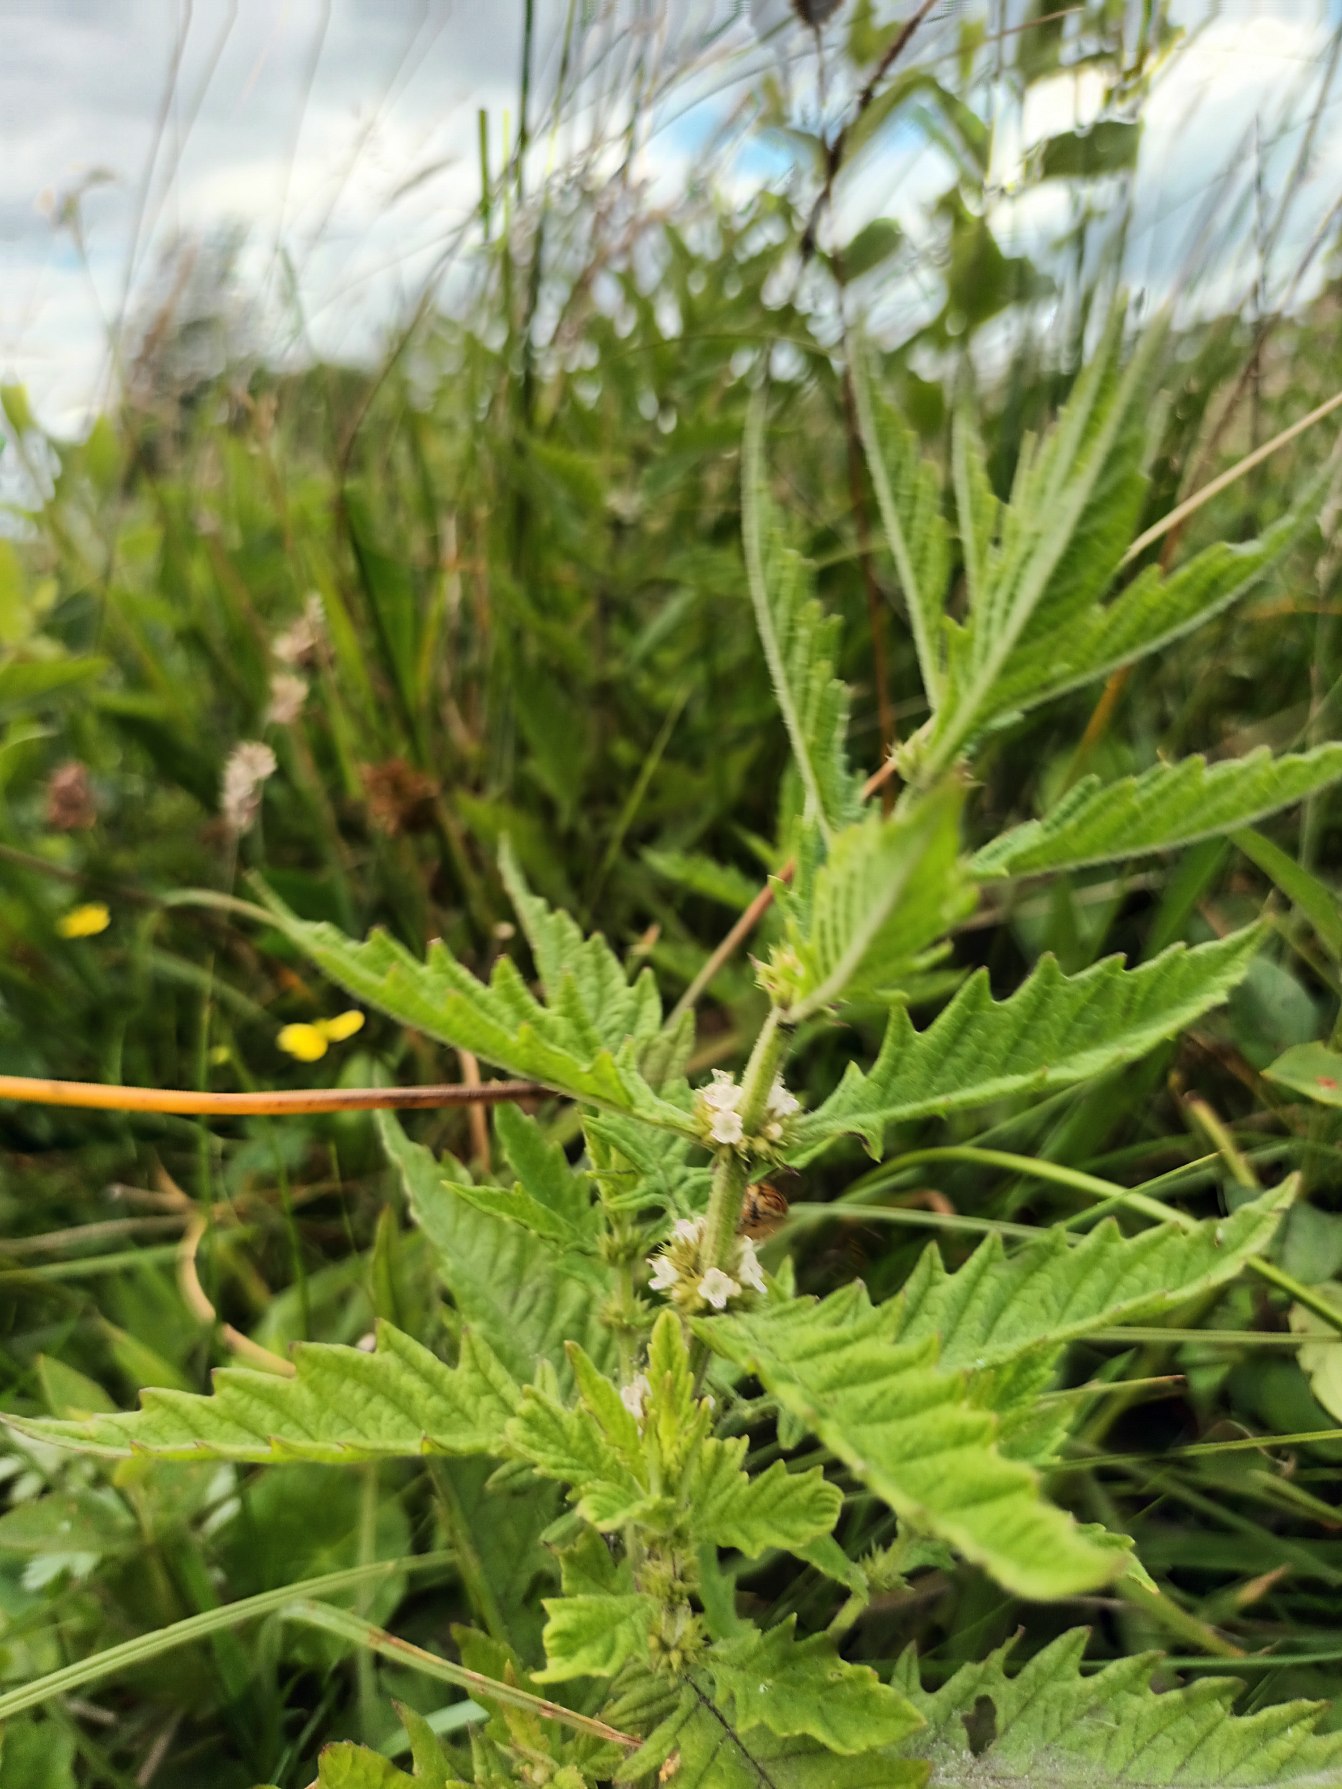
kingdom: Plantae
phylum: Tracheophyta
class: Magnoliopsida
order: Lamiales
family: Lamiaceae
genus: Lycopus
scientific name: Lycopus europaeus
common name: Sværtevæld
